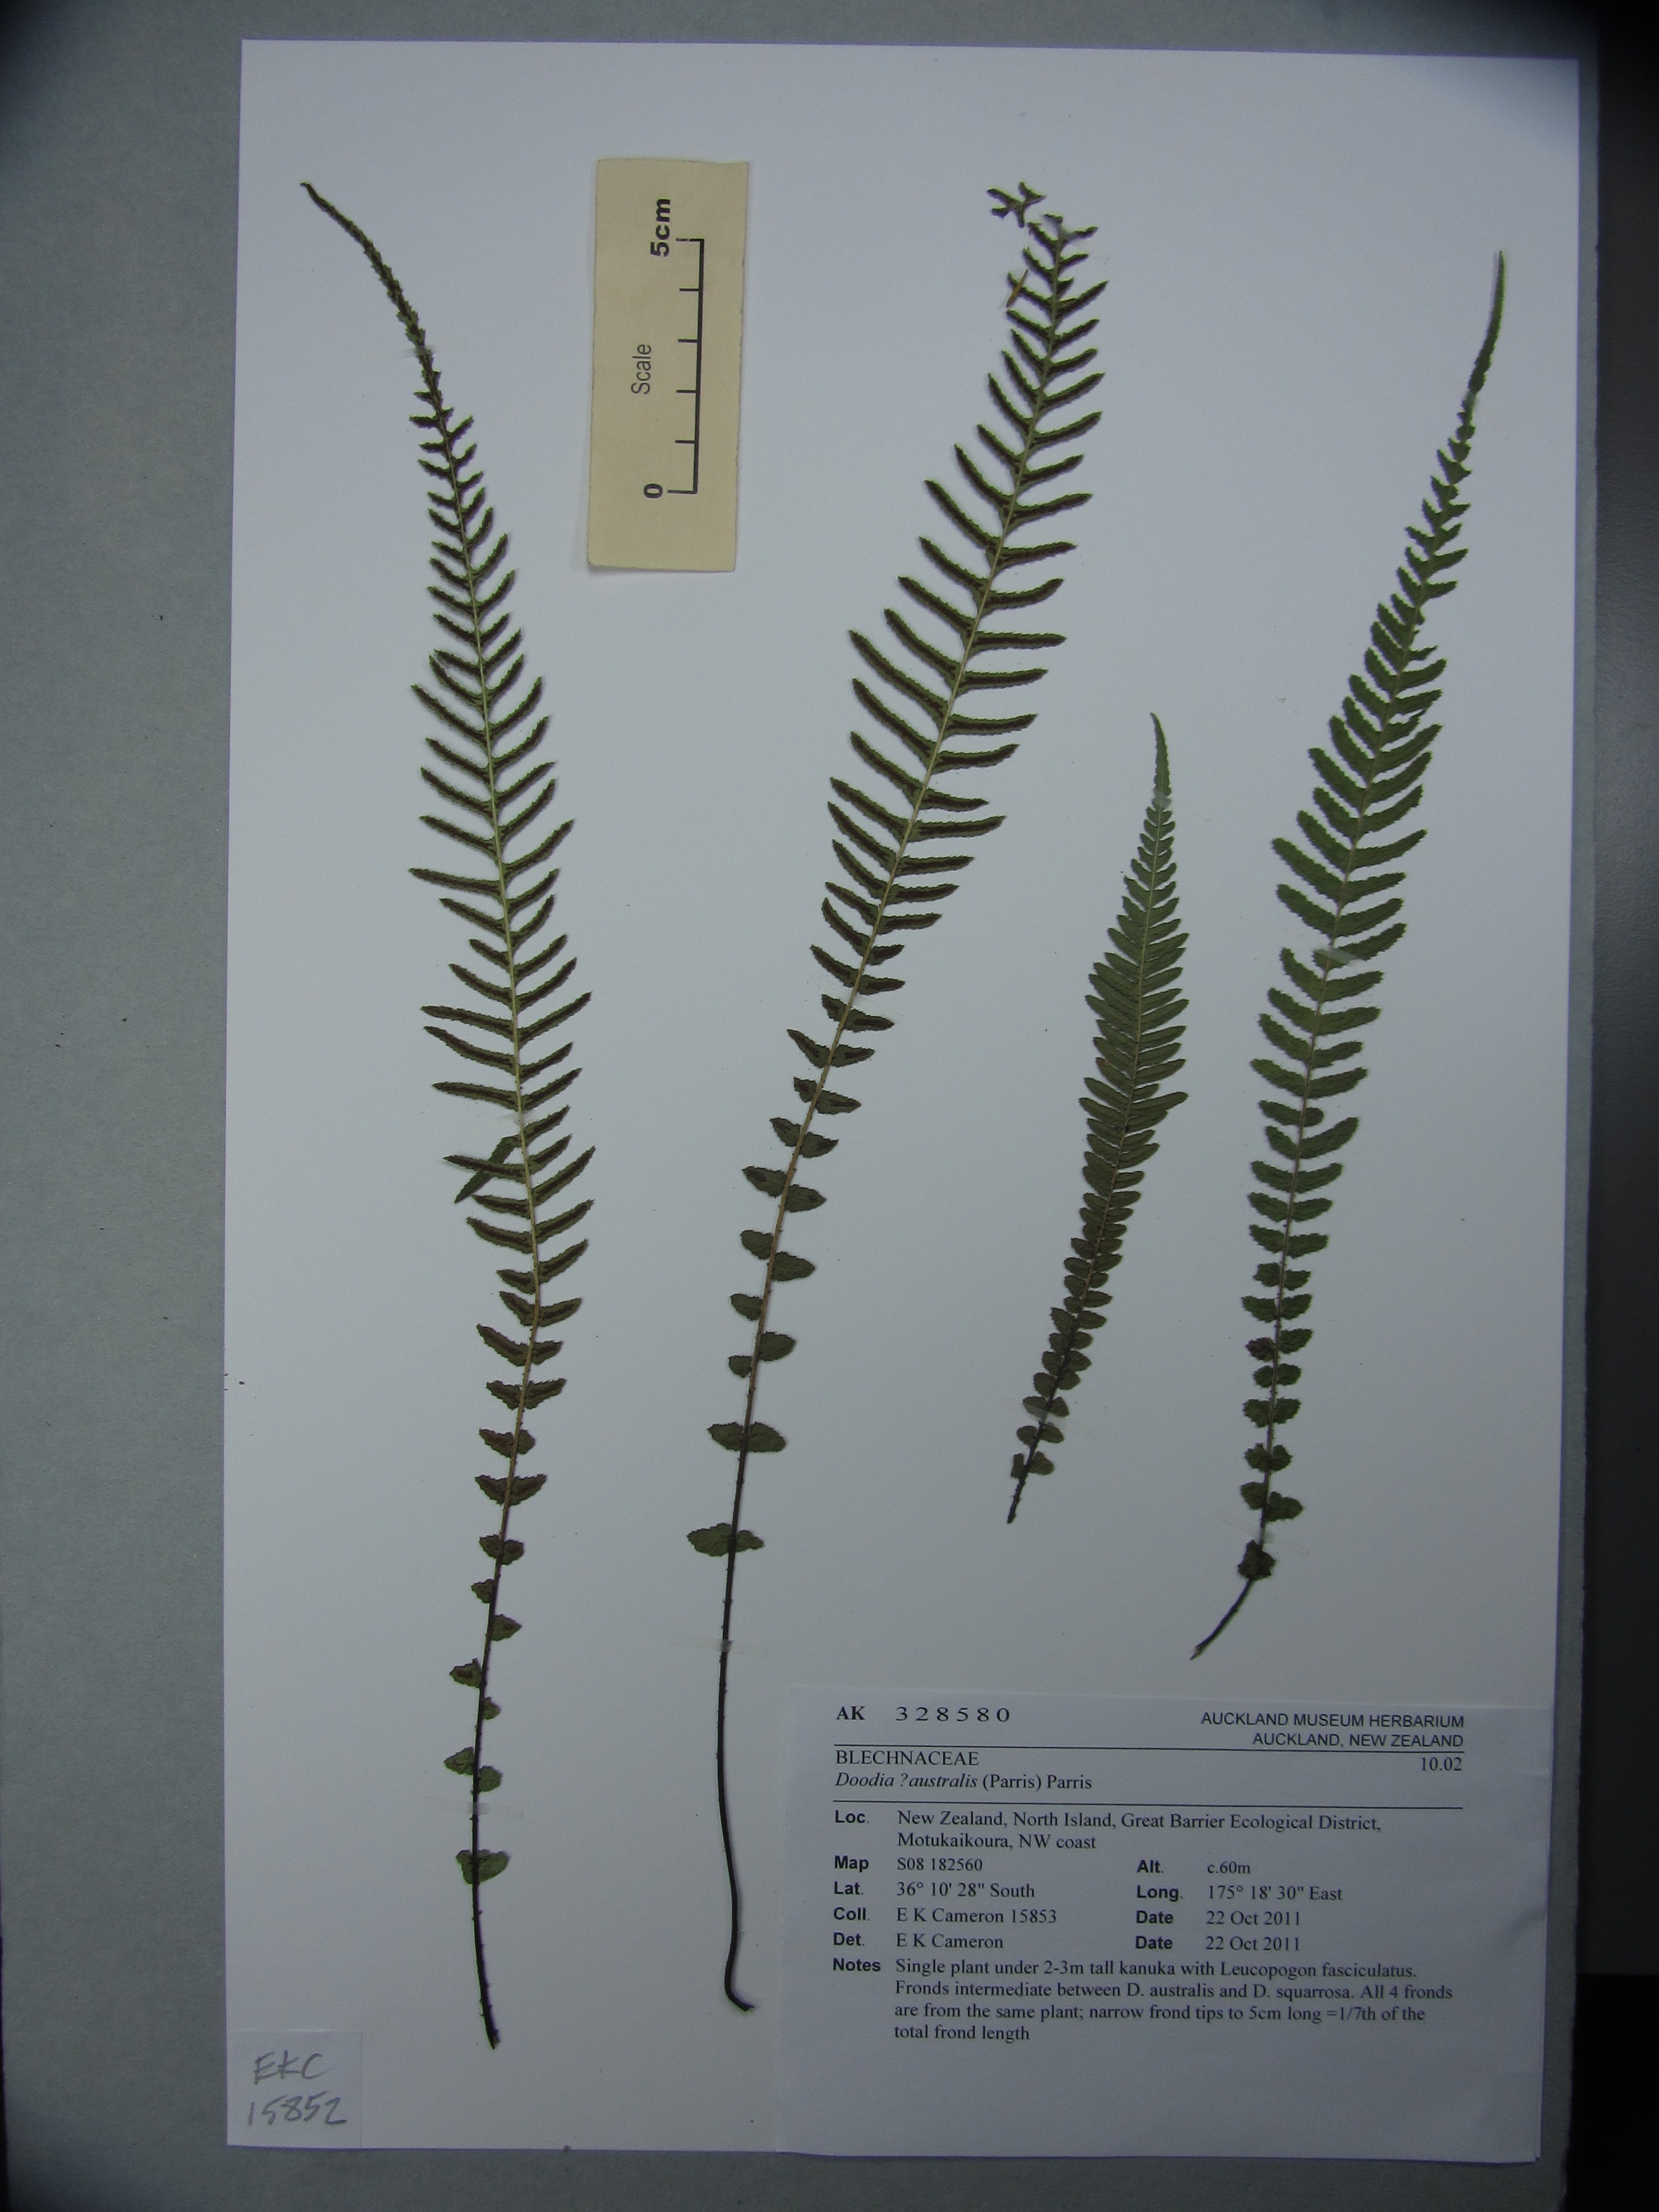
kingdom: Plantae
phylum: Tracheophyta
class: Polypodiopsida
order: Polypodiales
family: Blechnaceae
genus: Doodia
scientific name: Doodia australis
